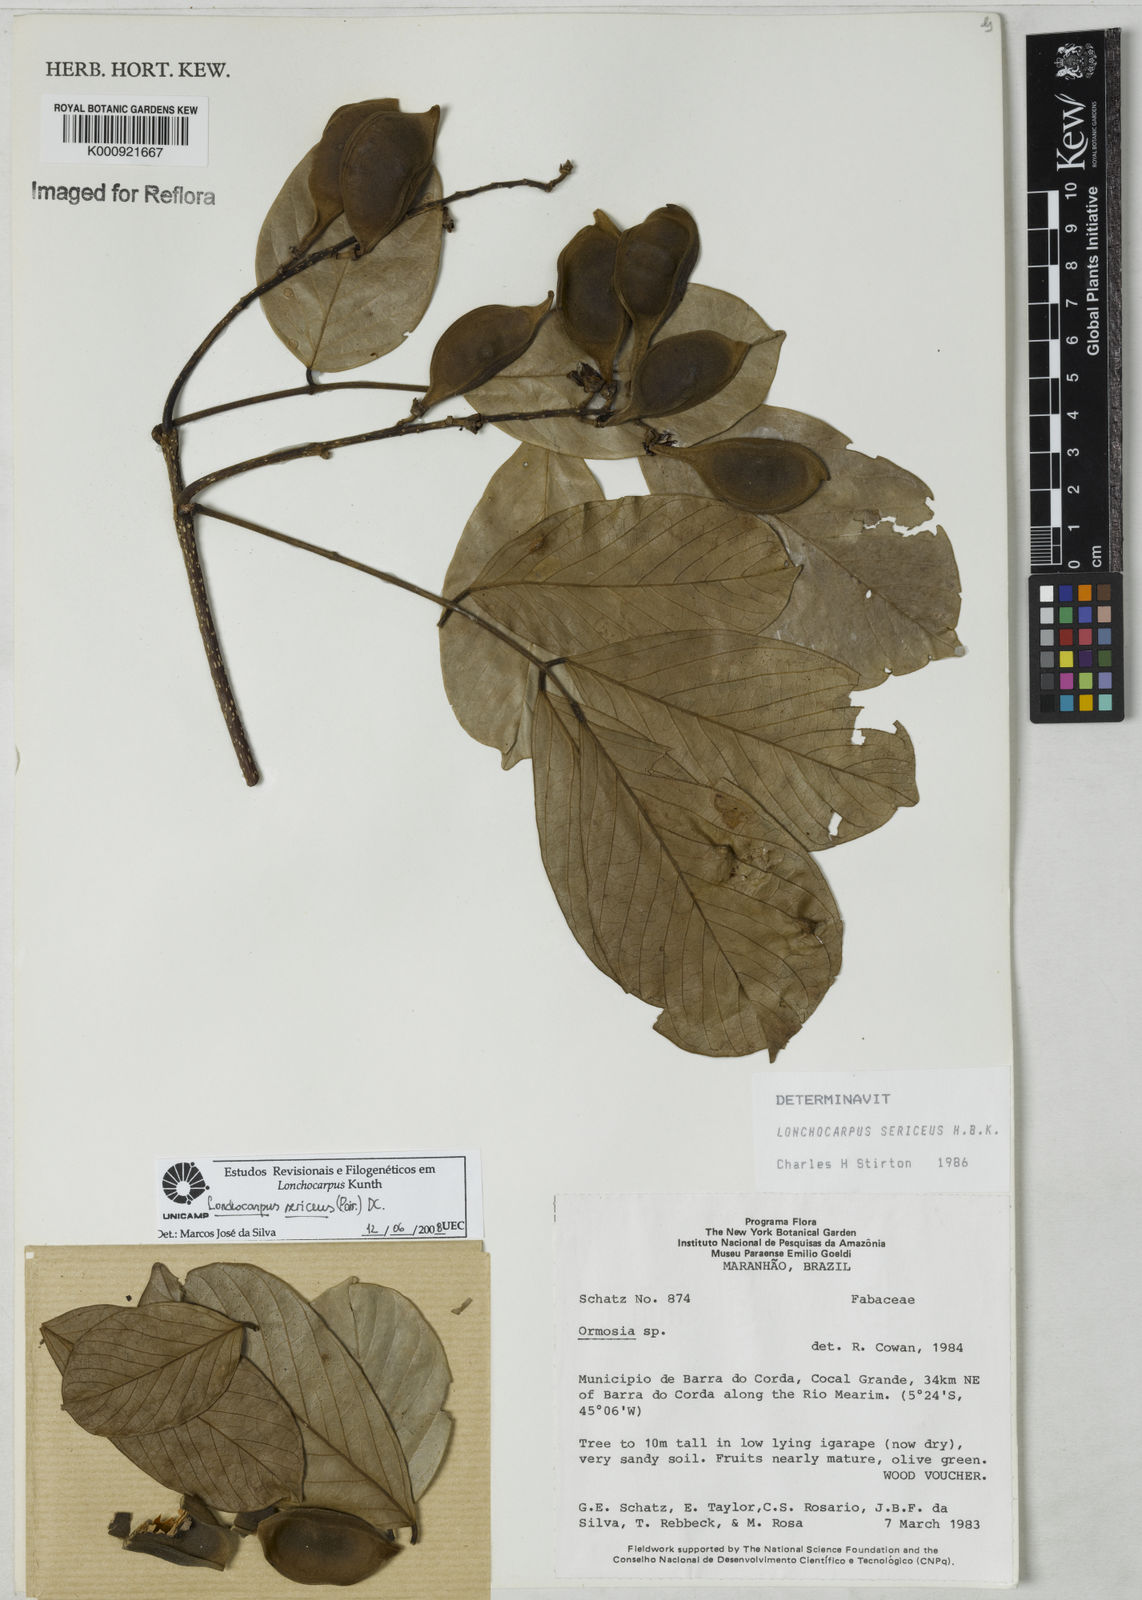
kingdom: Plantae
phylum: Tracheophyta
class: Magnoliopsida
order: Fabales
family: Fabaceae
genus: Lonchocarpus
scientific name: Lonchocarpus sericeus
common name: Savonette
